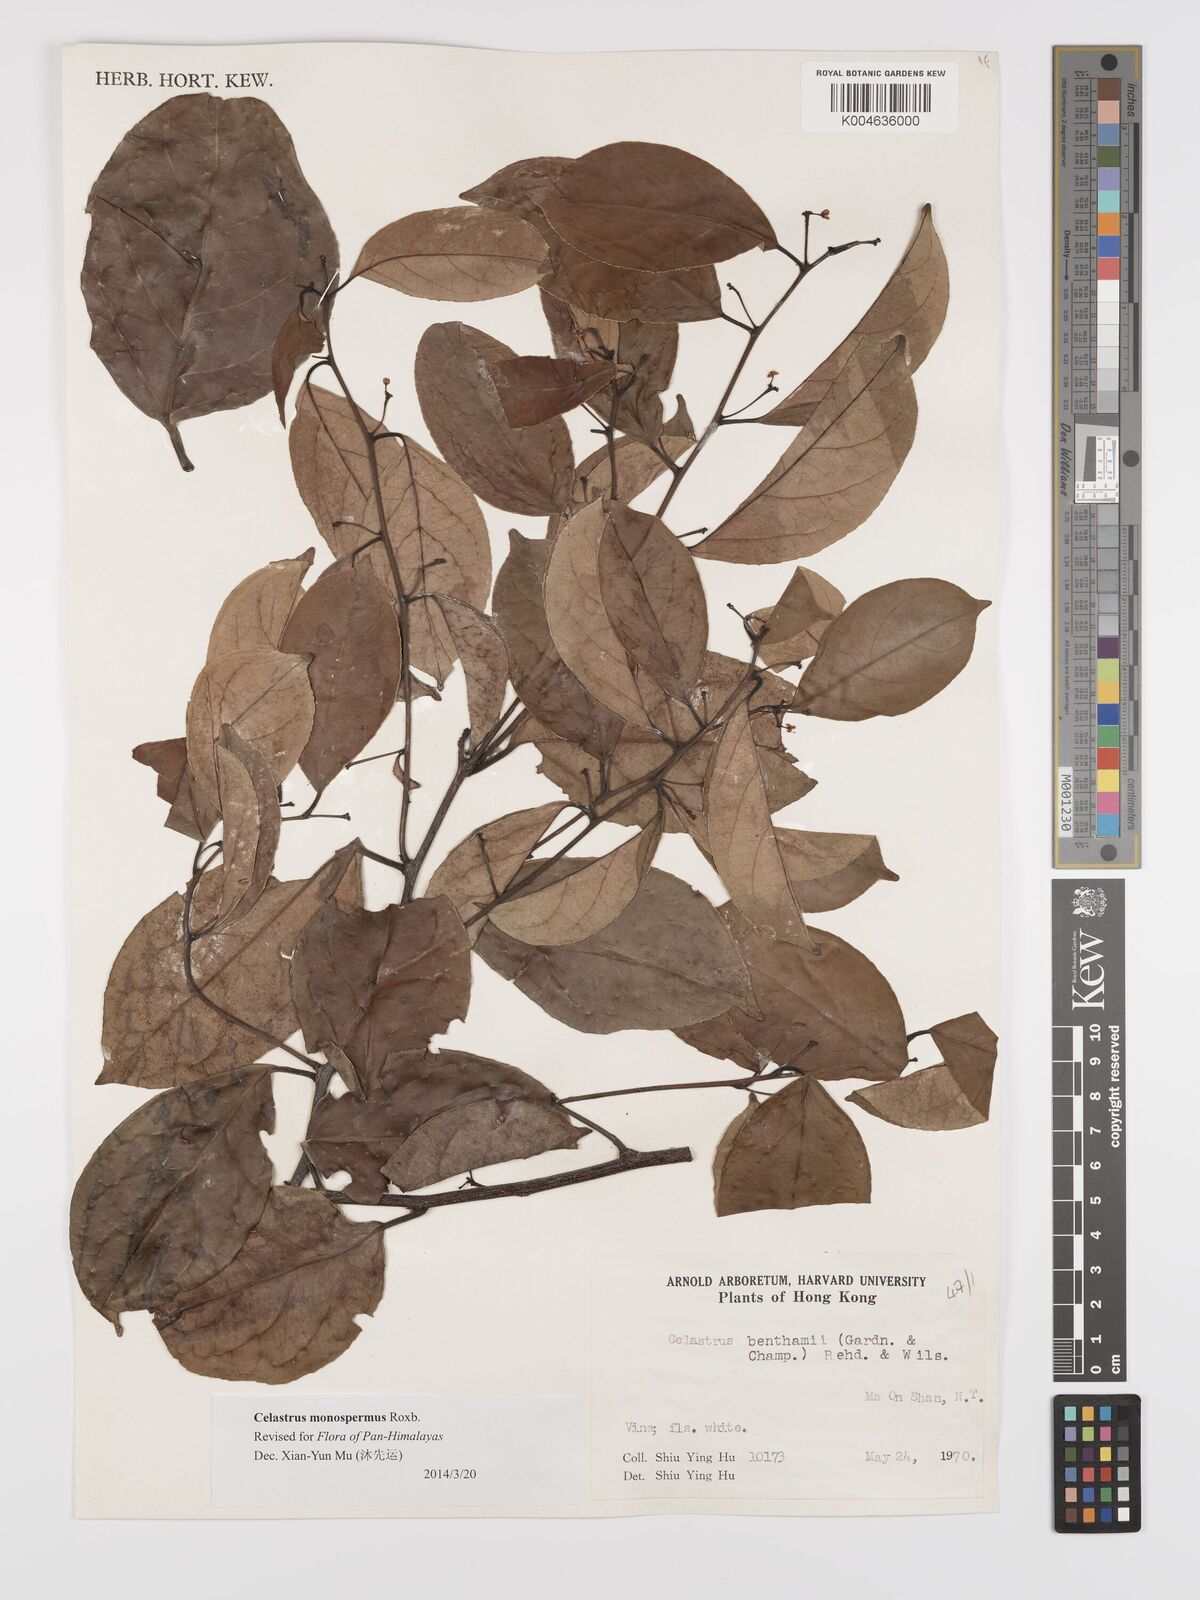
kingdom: Plantae
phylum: Tracheophyta
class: Magnoliopsida
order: Celastrales
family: Celastraceae
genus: Celastrus
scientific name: Celastrus monospermus
